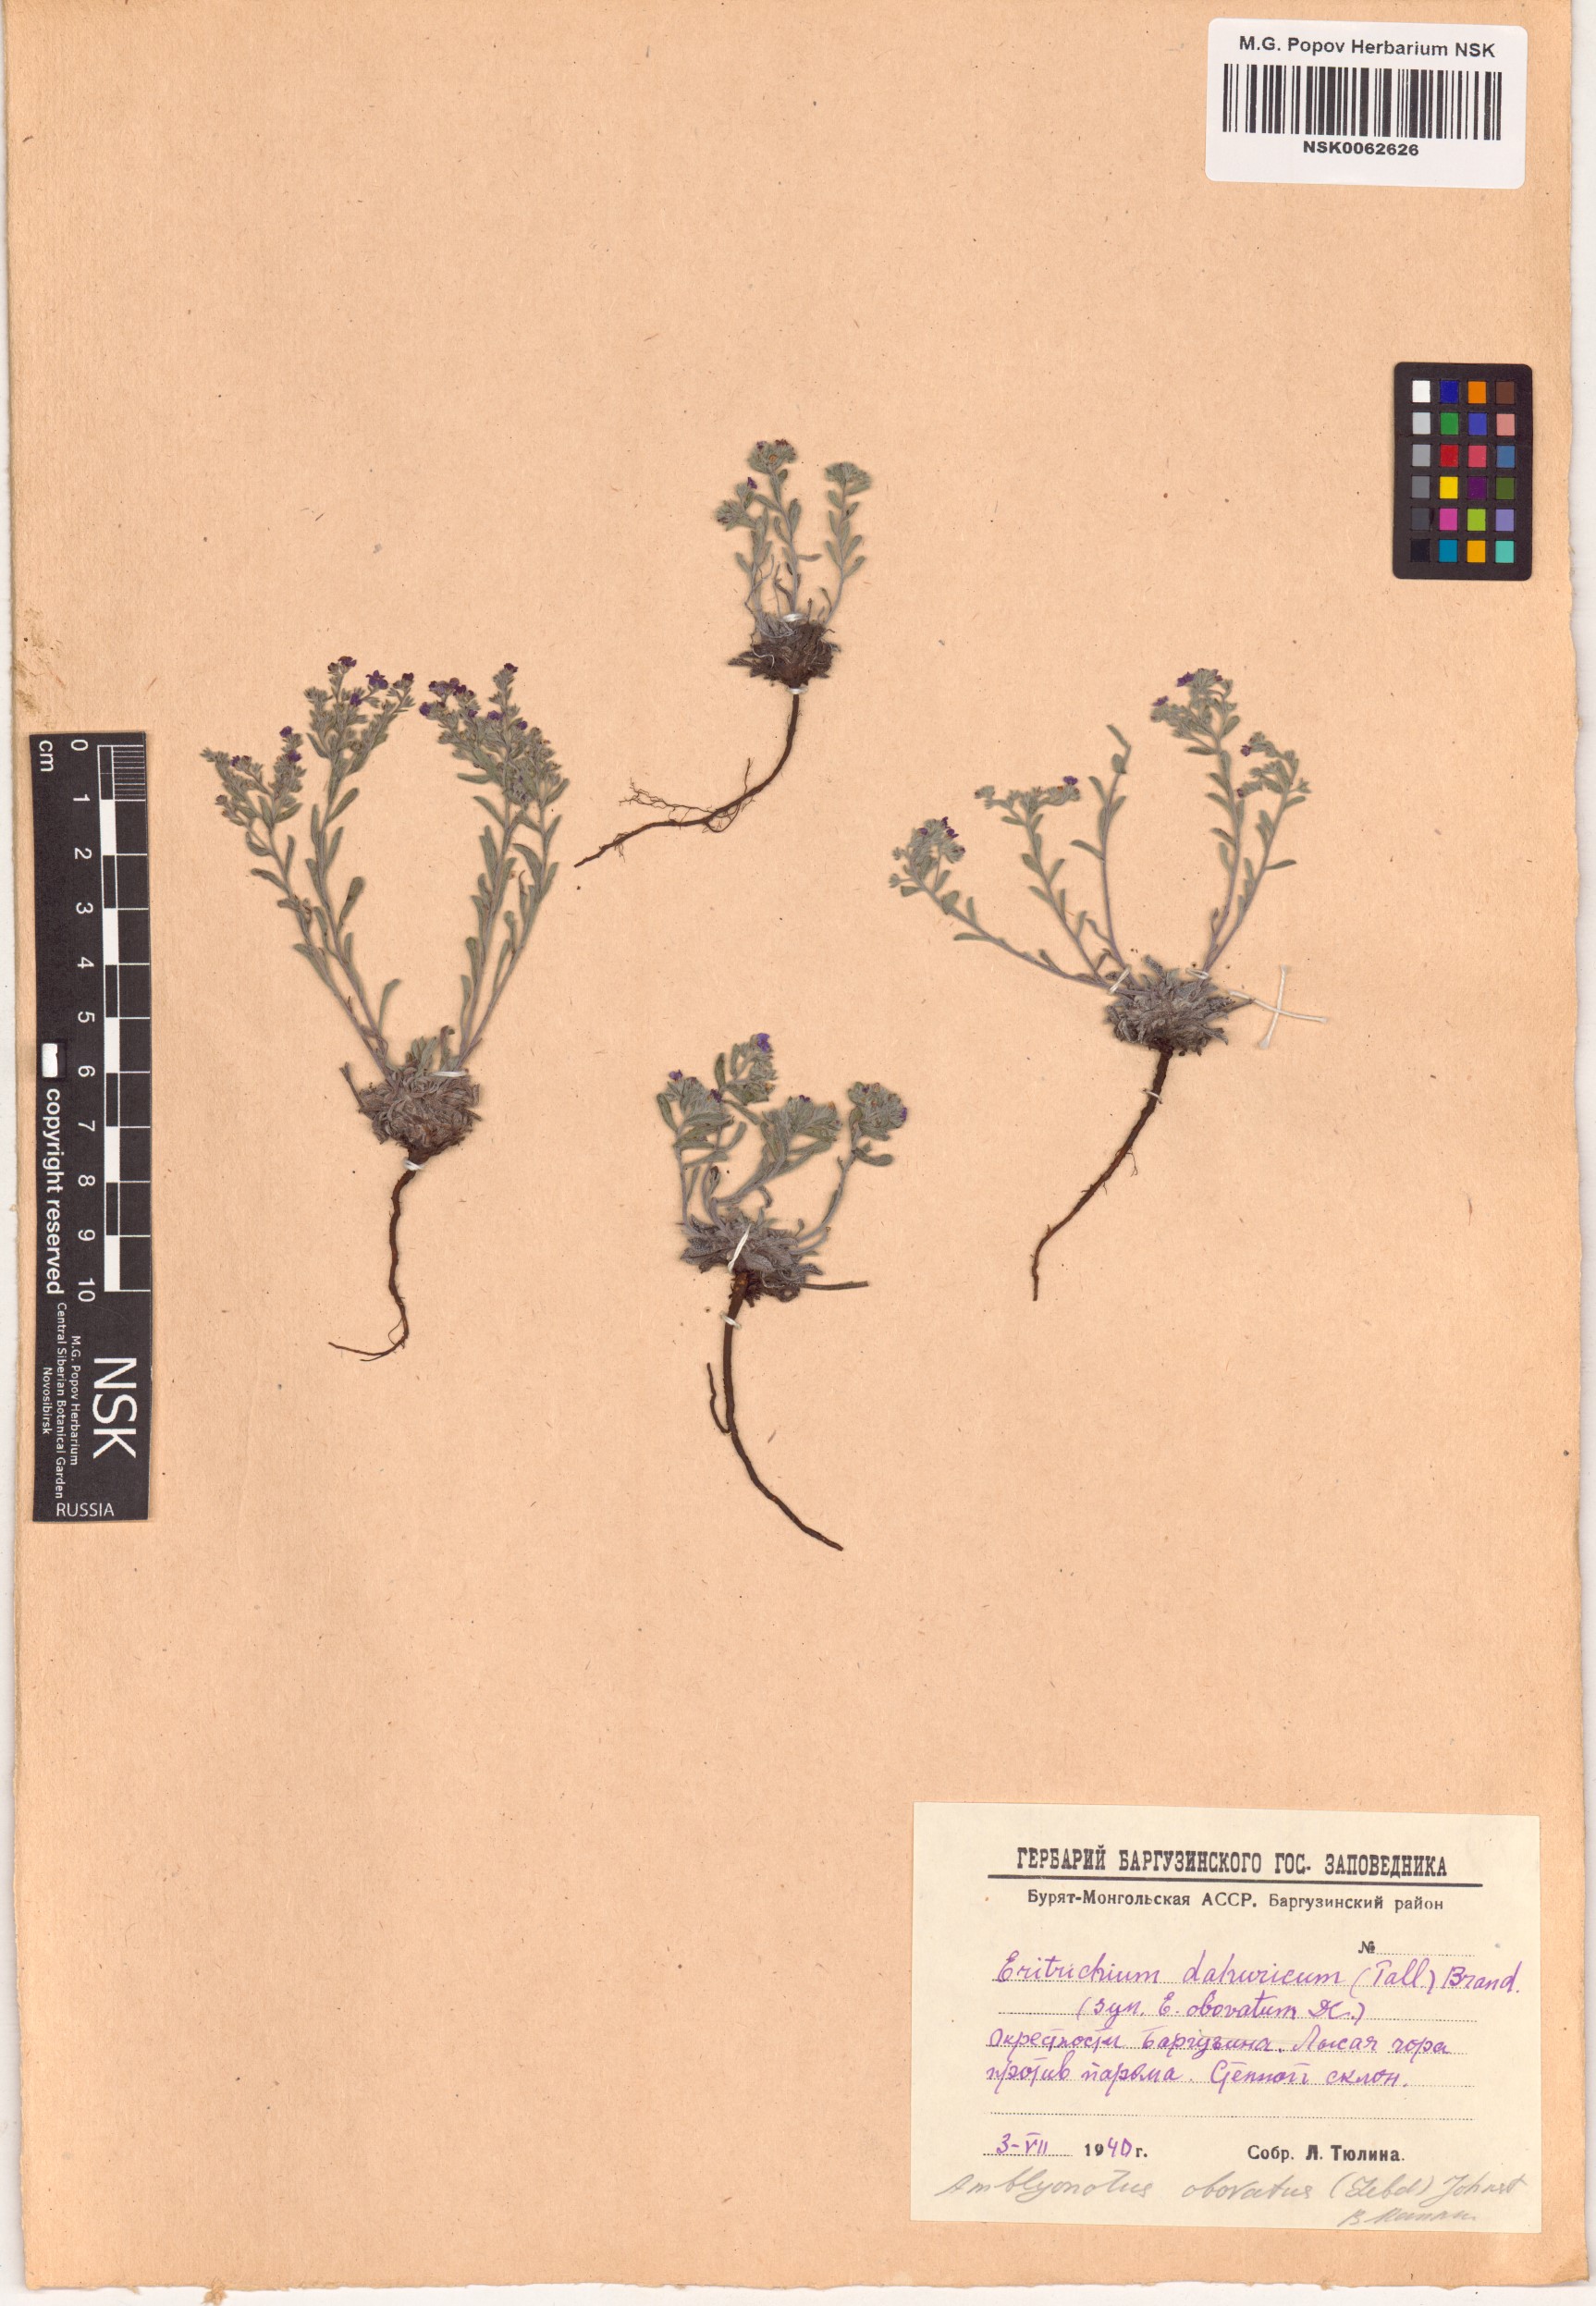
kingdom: Plantae
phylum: Tracheophyta
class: Magnoliopsida
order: Boraginales
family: Boraginaceae
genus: Eritrichium
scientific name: Eritrichium rupestre
